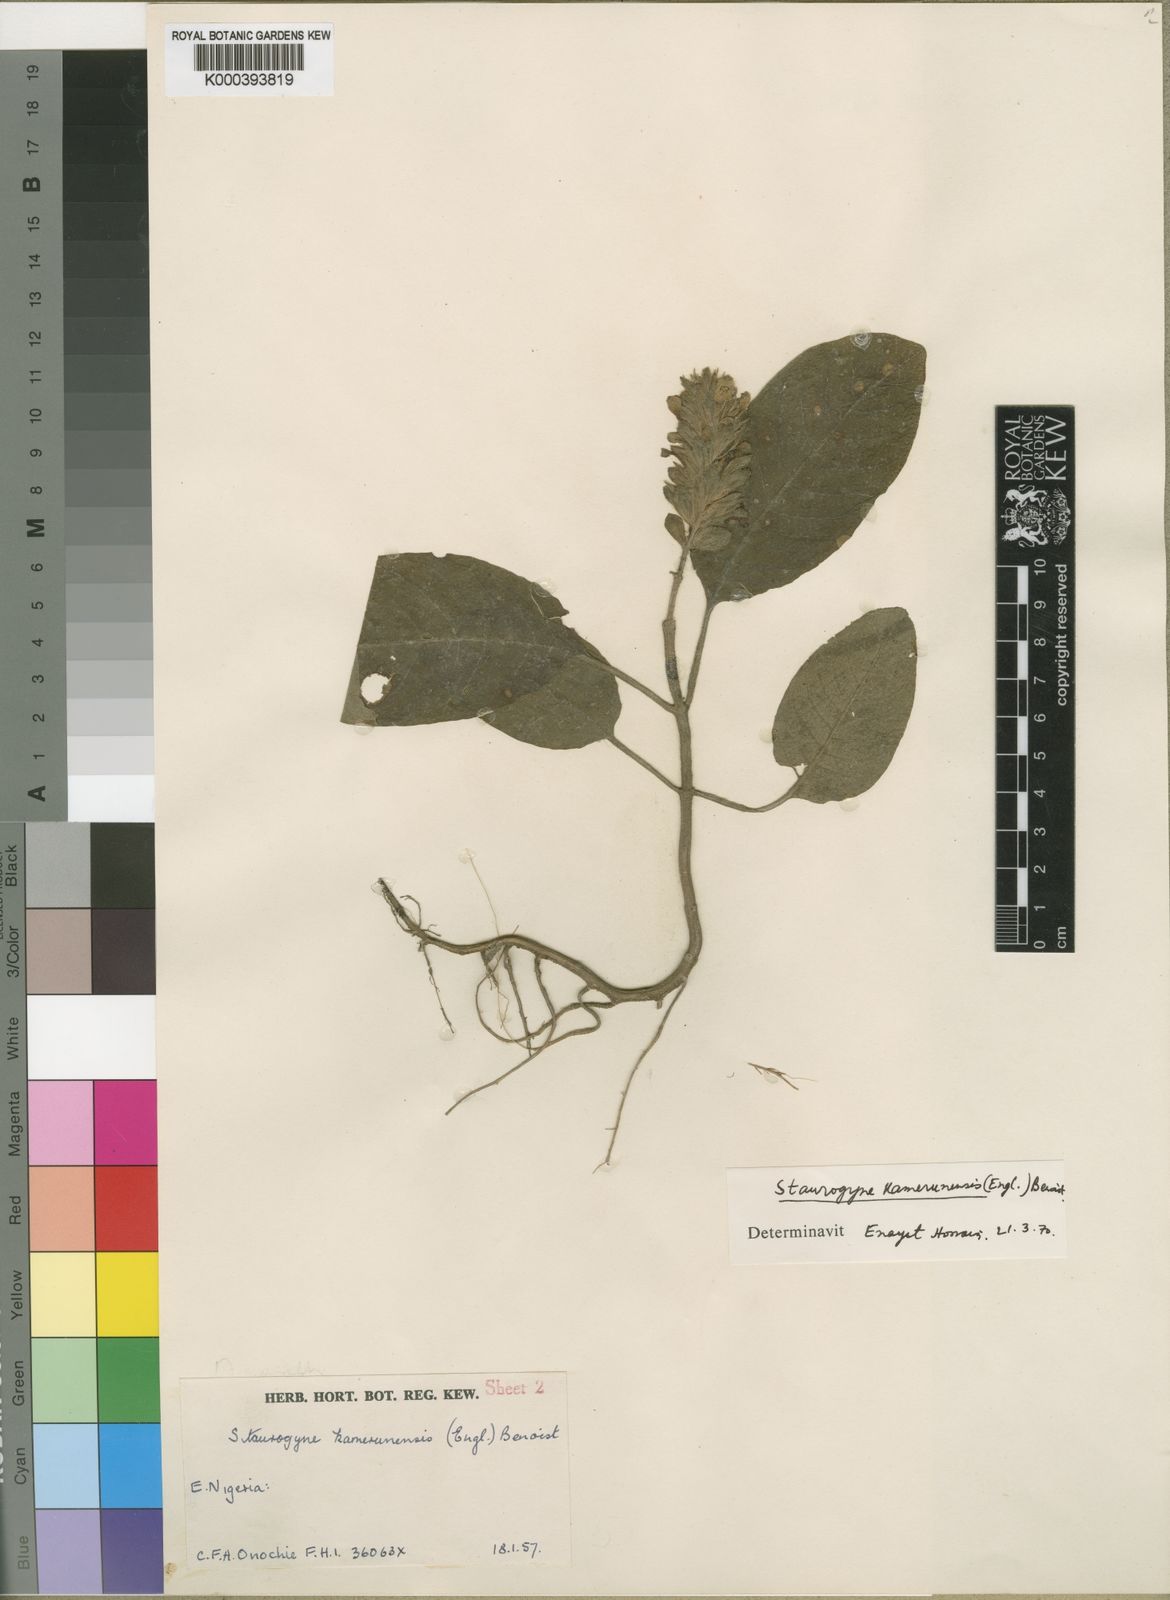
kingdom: Plantae
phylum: Tracheophyta
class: Magnoliopsida
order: Lamiales
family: Acanthaceae
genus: Staurogyne
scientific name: Staurogyne kamerunensis
